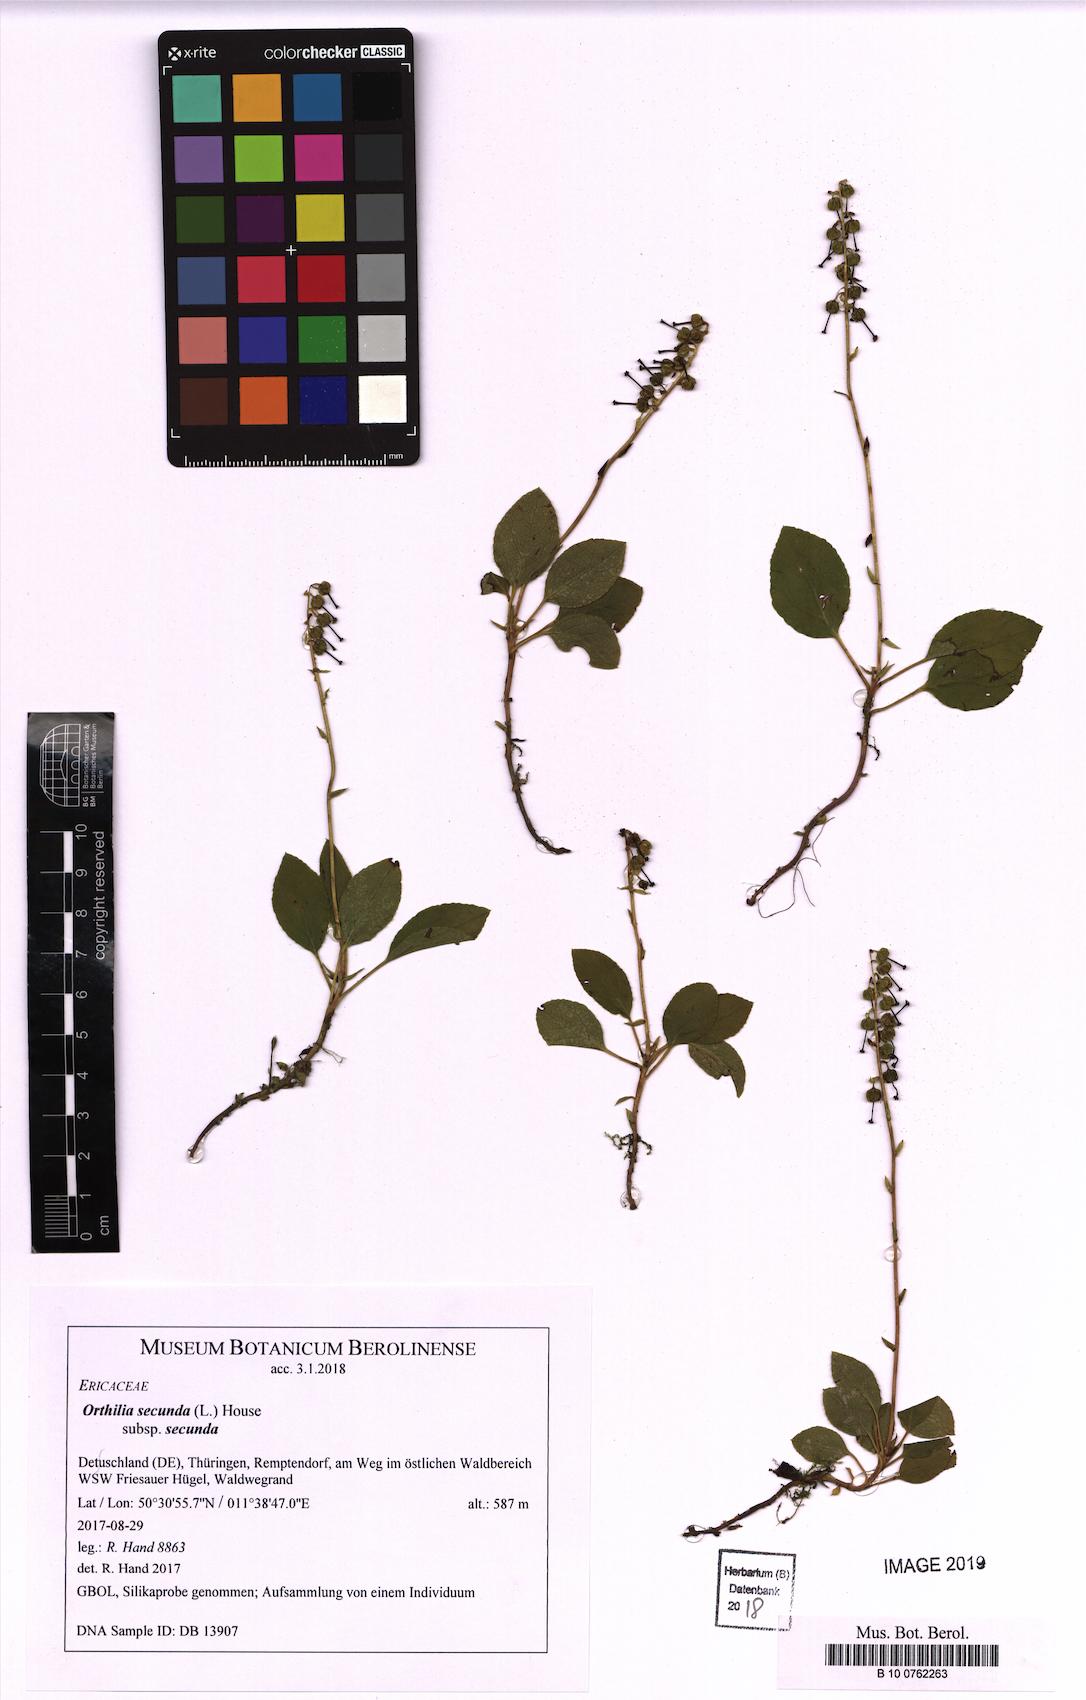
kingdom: Plantae
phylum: Tracheophyta
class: Magnoliopsida
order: Ericales
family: Ericaceae
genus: Orthilia
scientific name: Orthilia secunda
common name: One-sided orthilia
